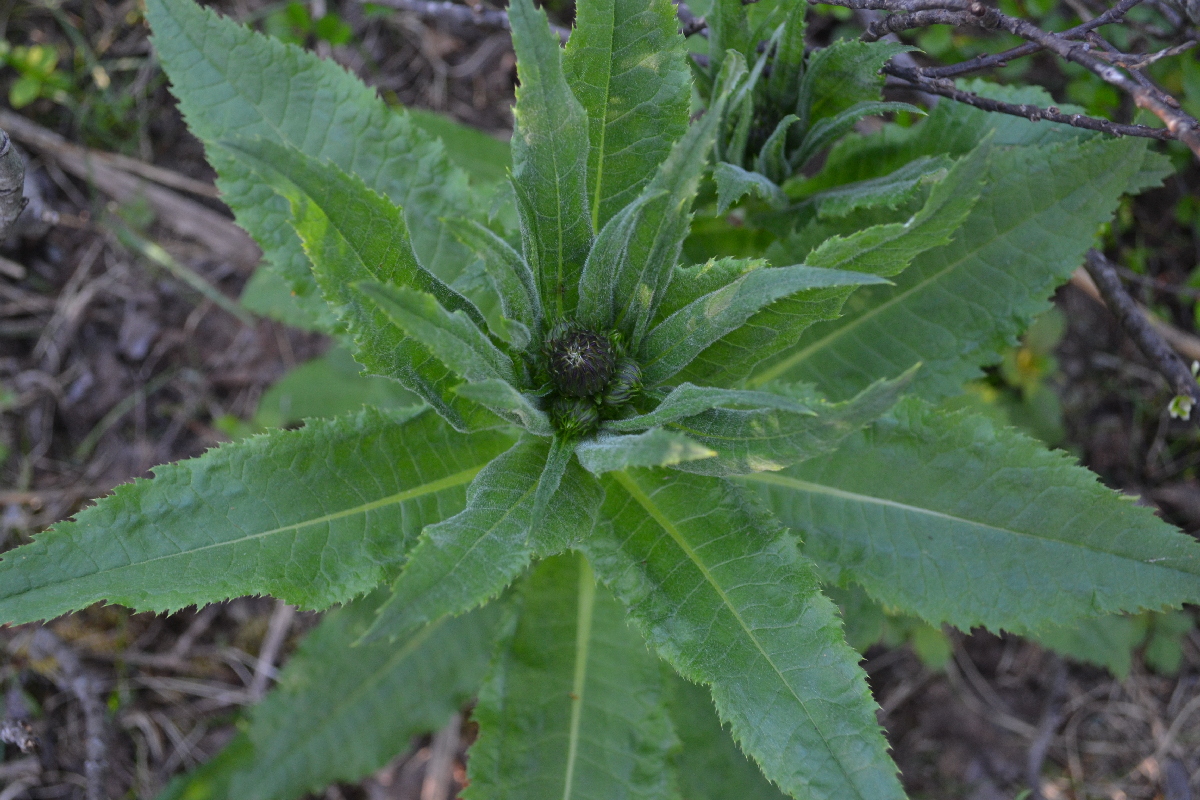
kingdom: Plantae
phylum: Tracheophyta
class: Magnoliopsida
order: Asterales
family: Asteraceae
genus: Cirsium
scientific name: Cirsium helenioides
